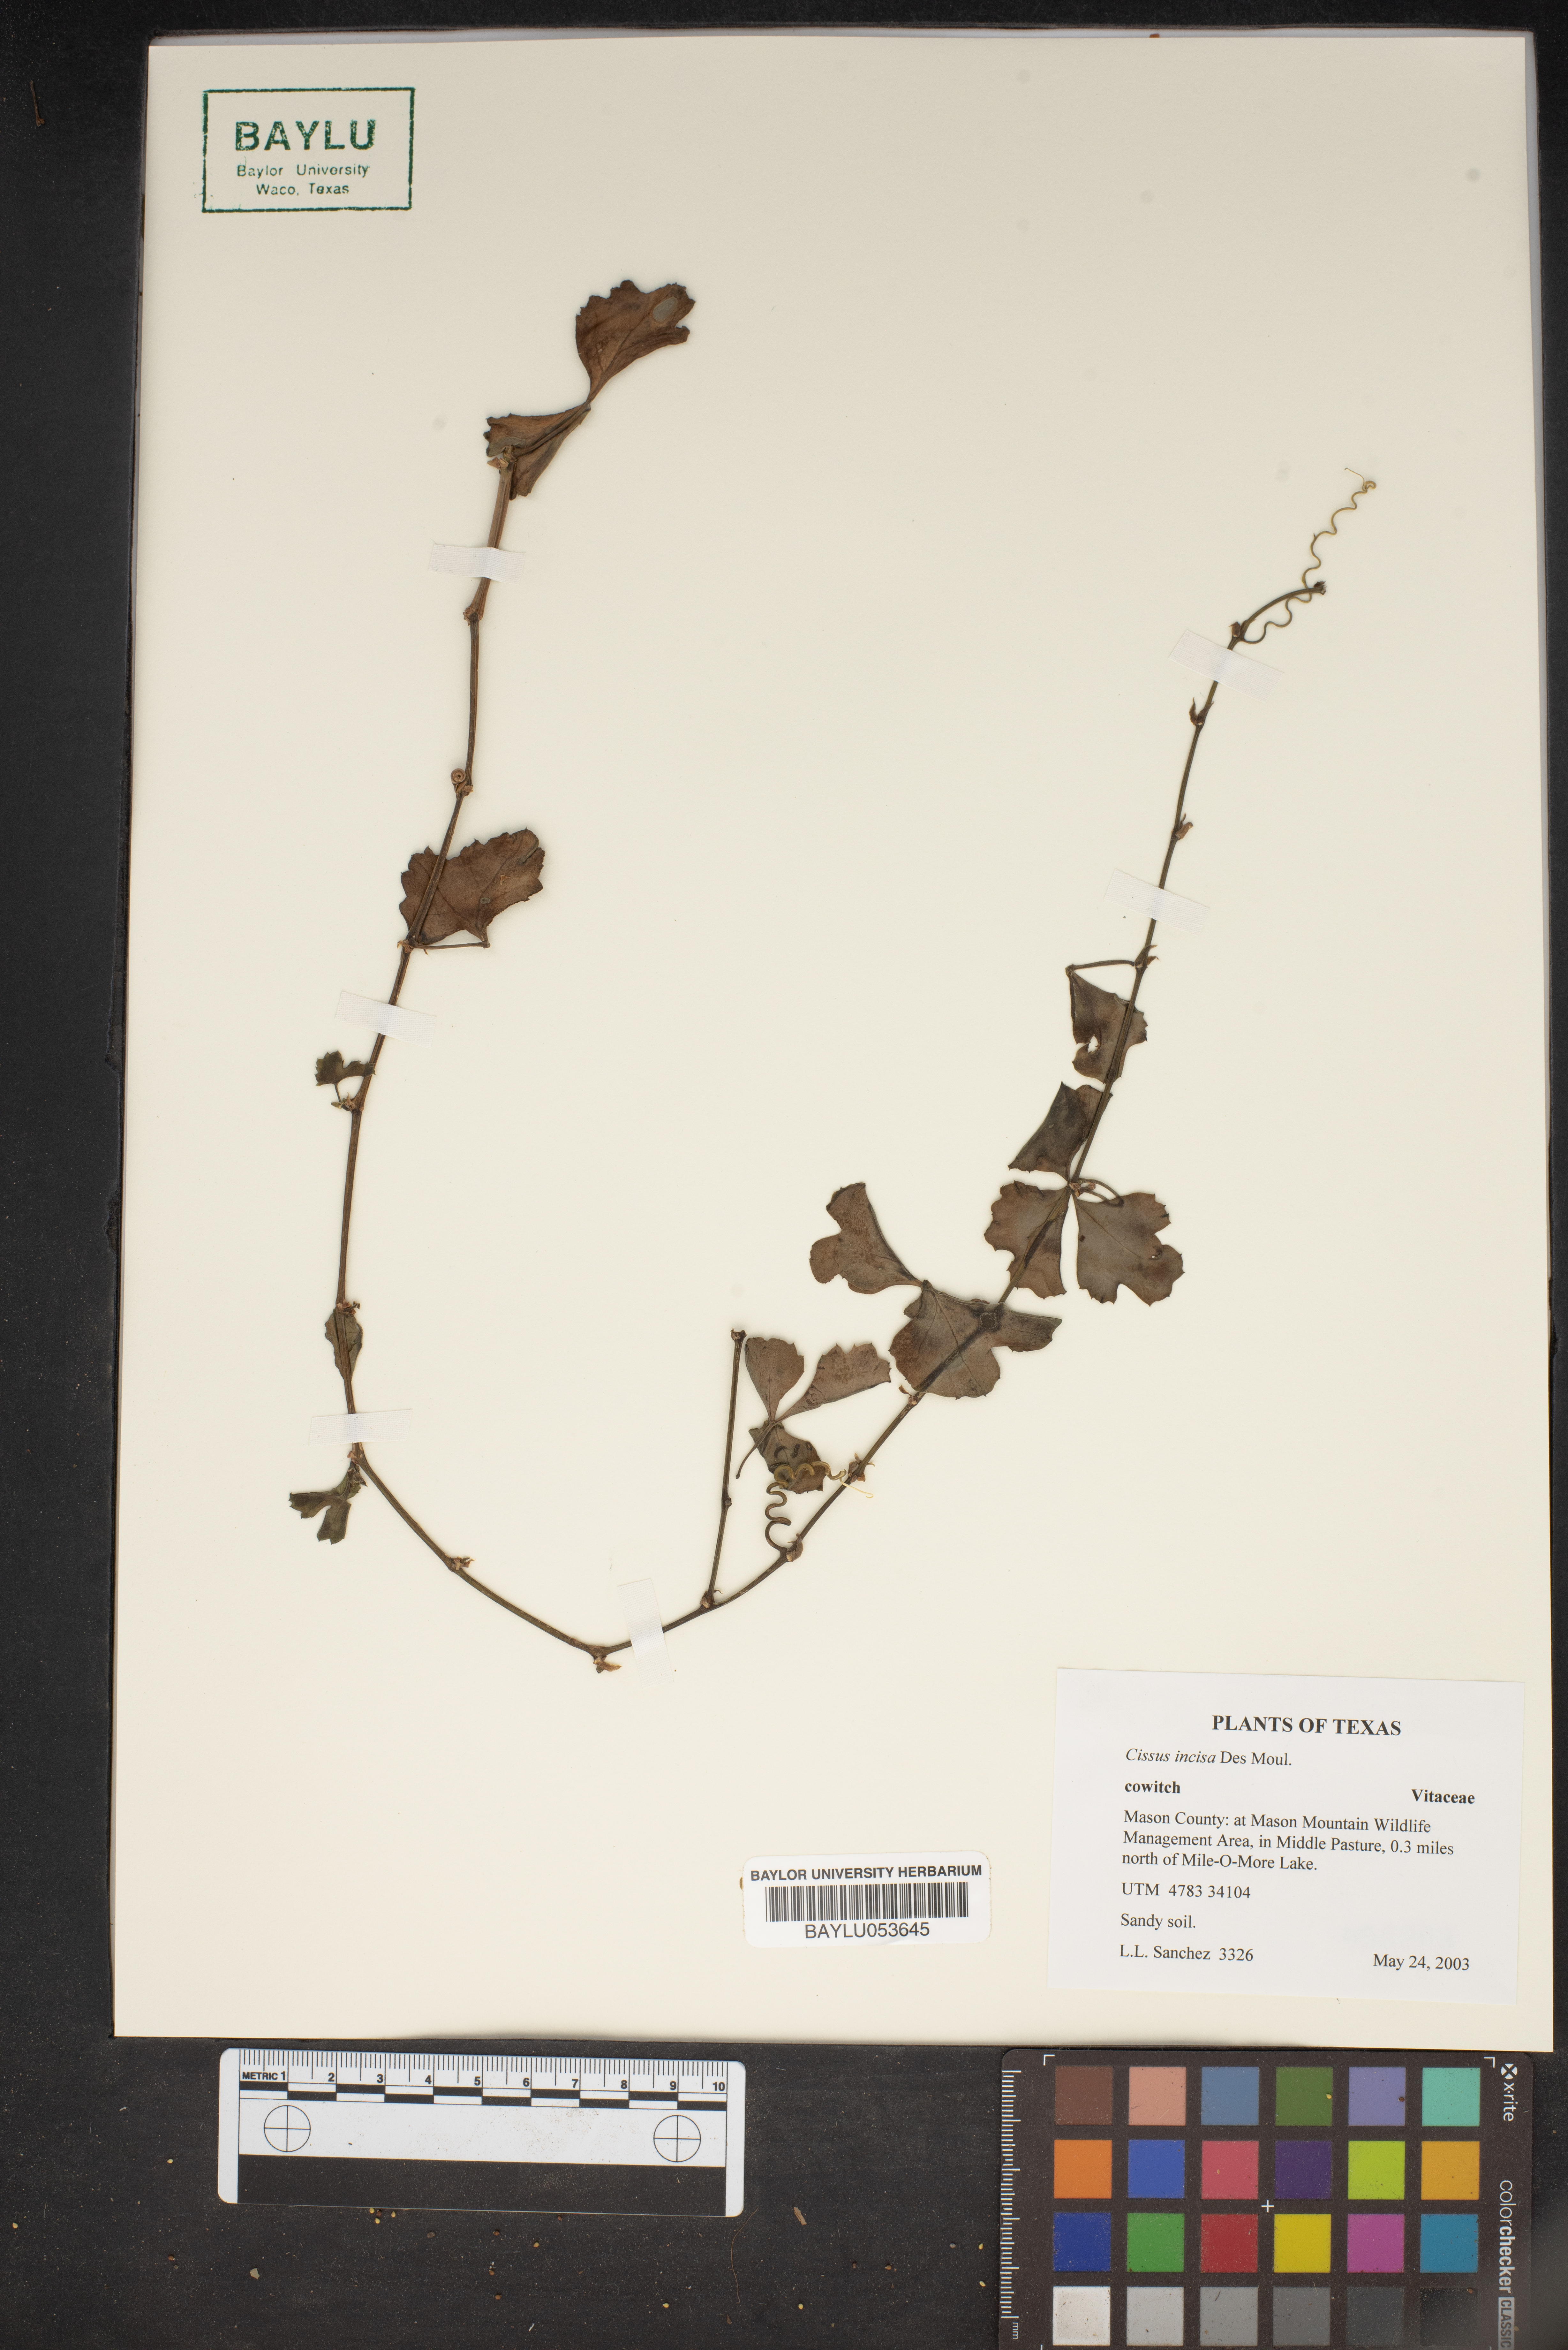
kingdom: Plantae
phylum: Tracheophyta
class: Magnoliopsida
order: Vitales
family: Vitaceae
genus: Cissus
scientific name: Cissus trifoliata
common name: Vine-sorrel
